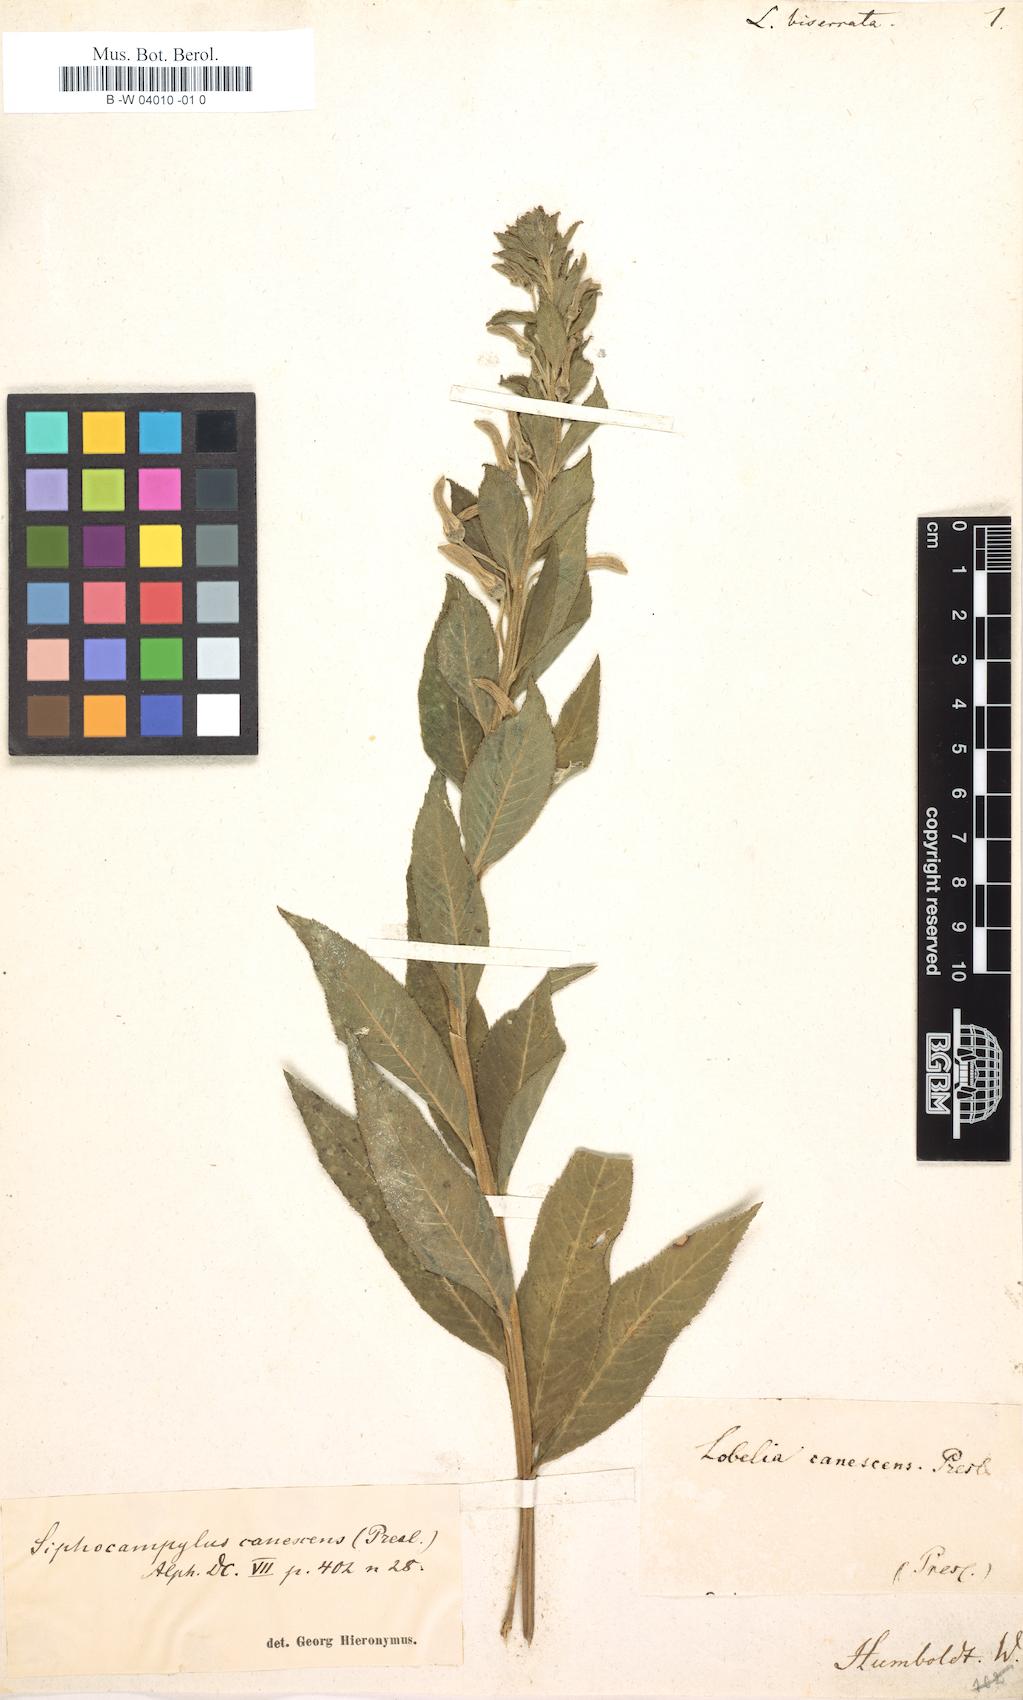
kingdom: Plantae
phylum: Tracheophyta
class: Magnoliopsida
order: Asterales
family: Campanulaceae
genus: Siphocampylus
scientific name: Siphocampylus biserratus
